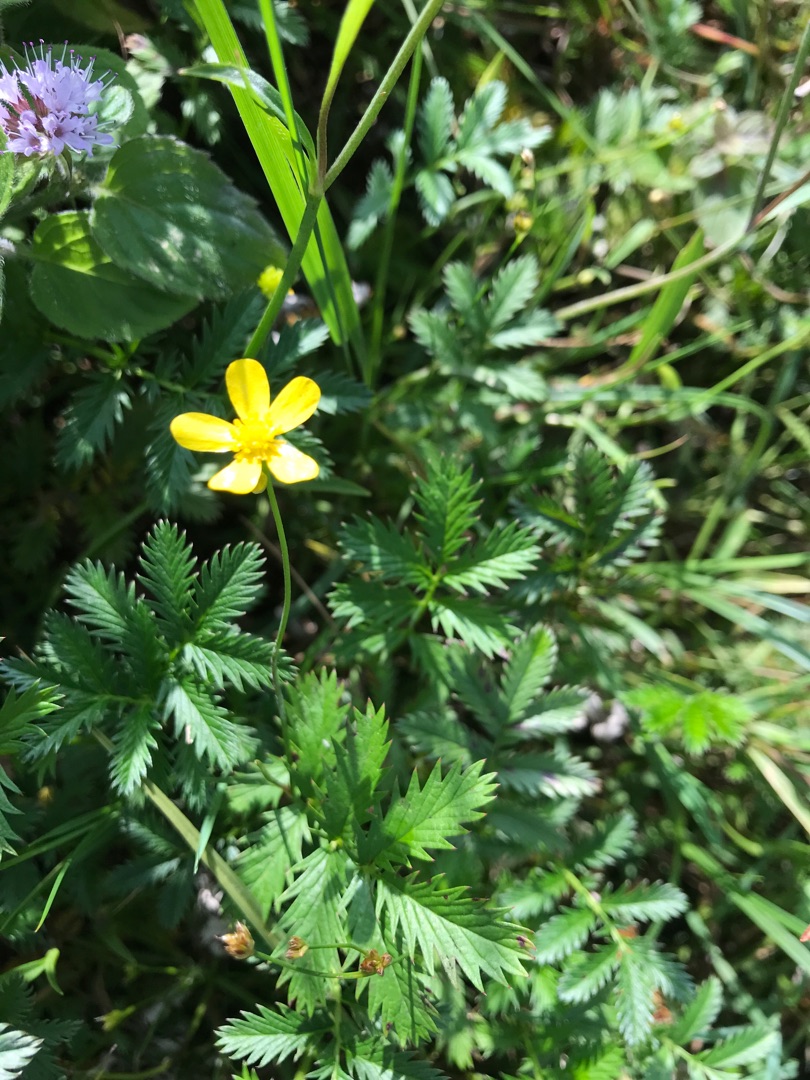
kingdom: Plantae
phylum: Tracheophyta
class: Magnoliopsida
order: Rosales
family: Rosaceae
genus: Argentina
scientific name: Argentina anserina
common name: Gåsepotentil
